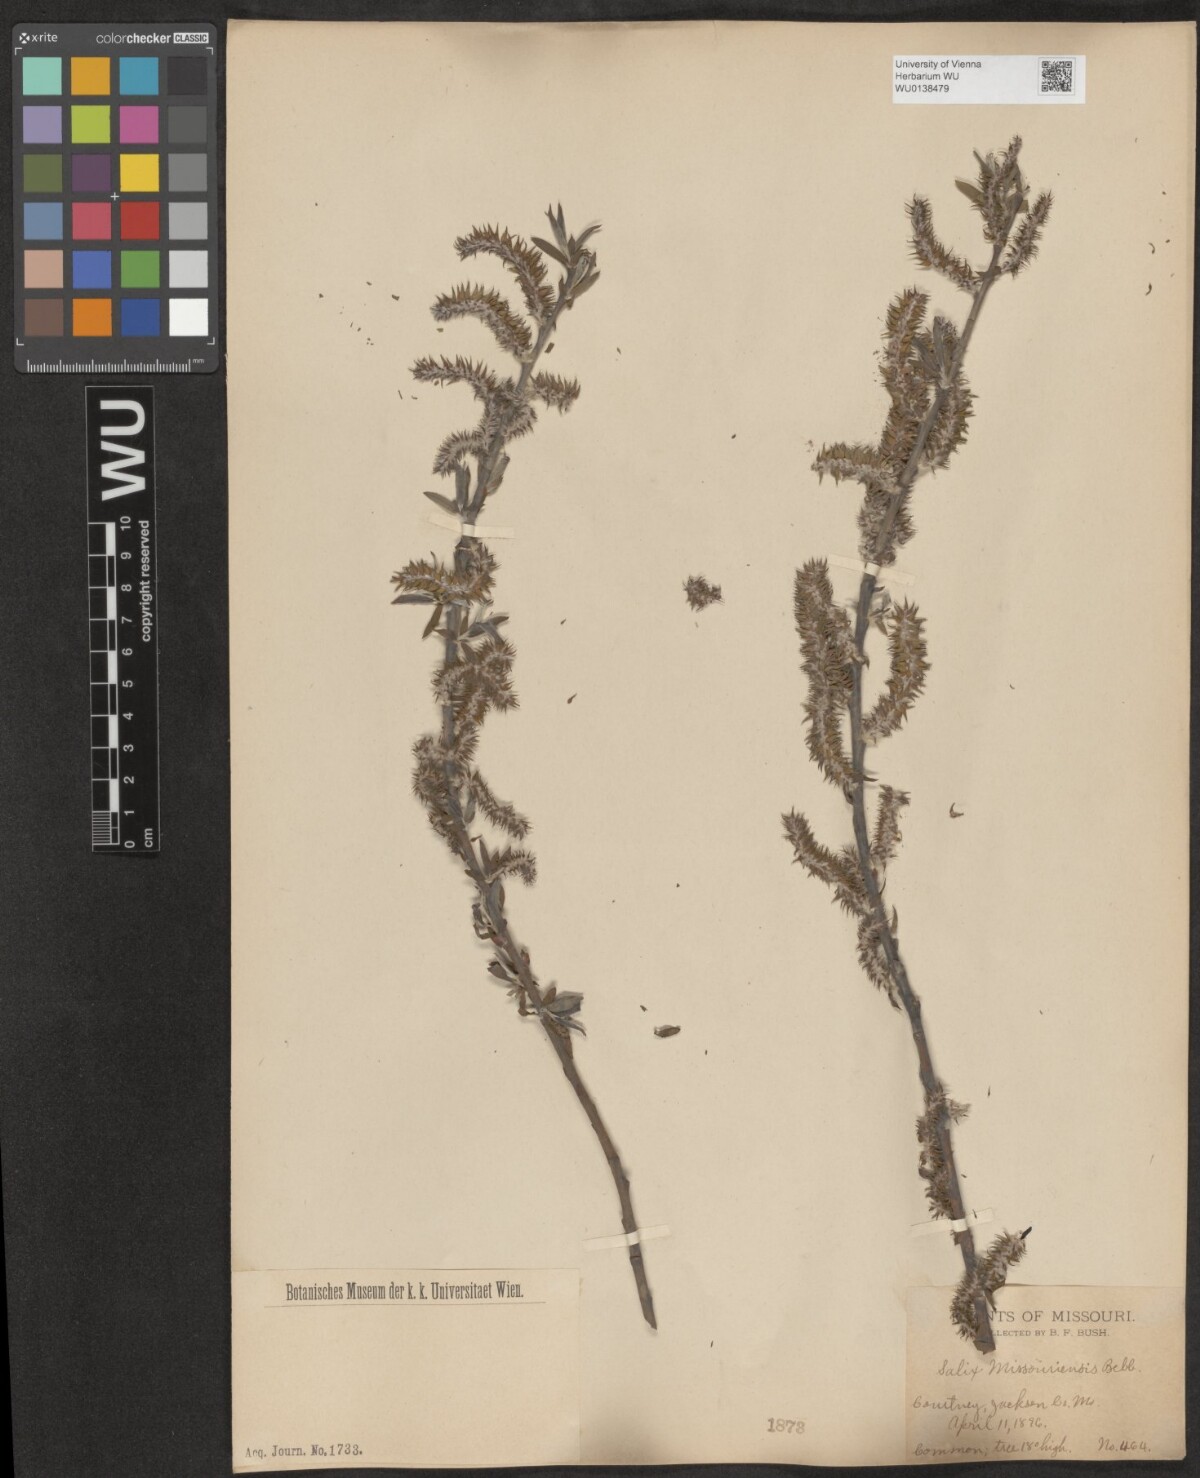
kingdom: Plantae
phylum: Tracheophyta
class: Magnoliopsida
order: Malpighiales
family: Salicaceae
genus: Salix
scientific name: Salix eriocephala
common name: Heart-leaved willow
